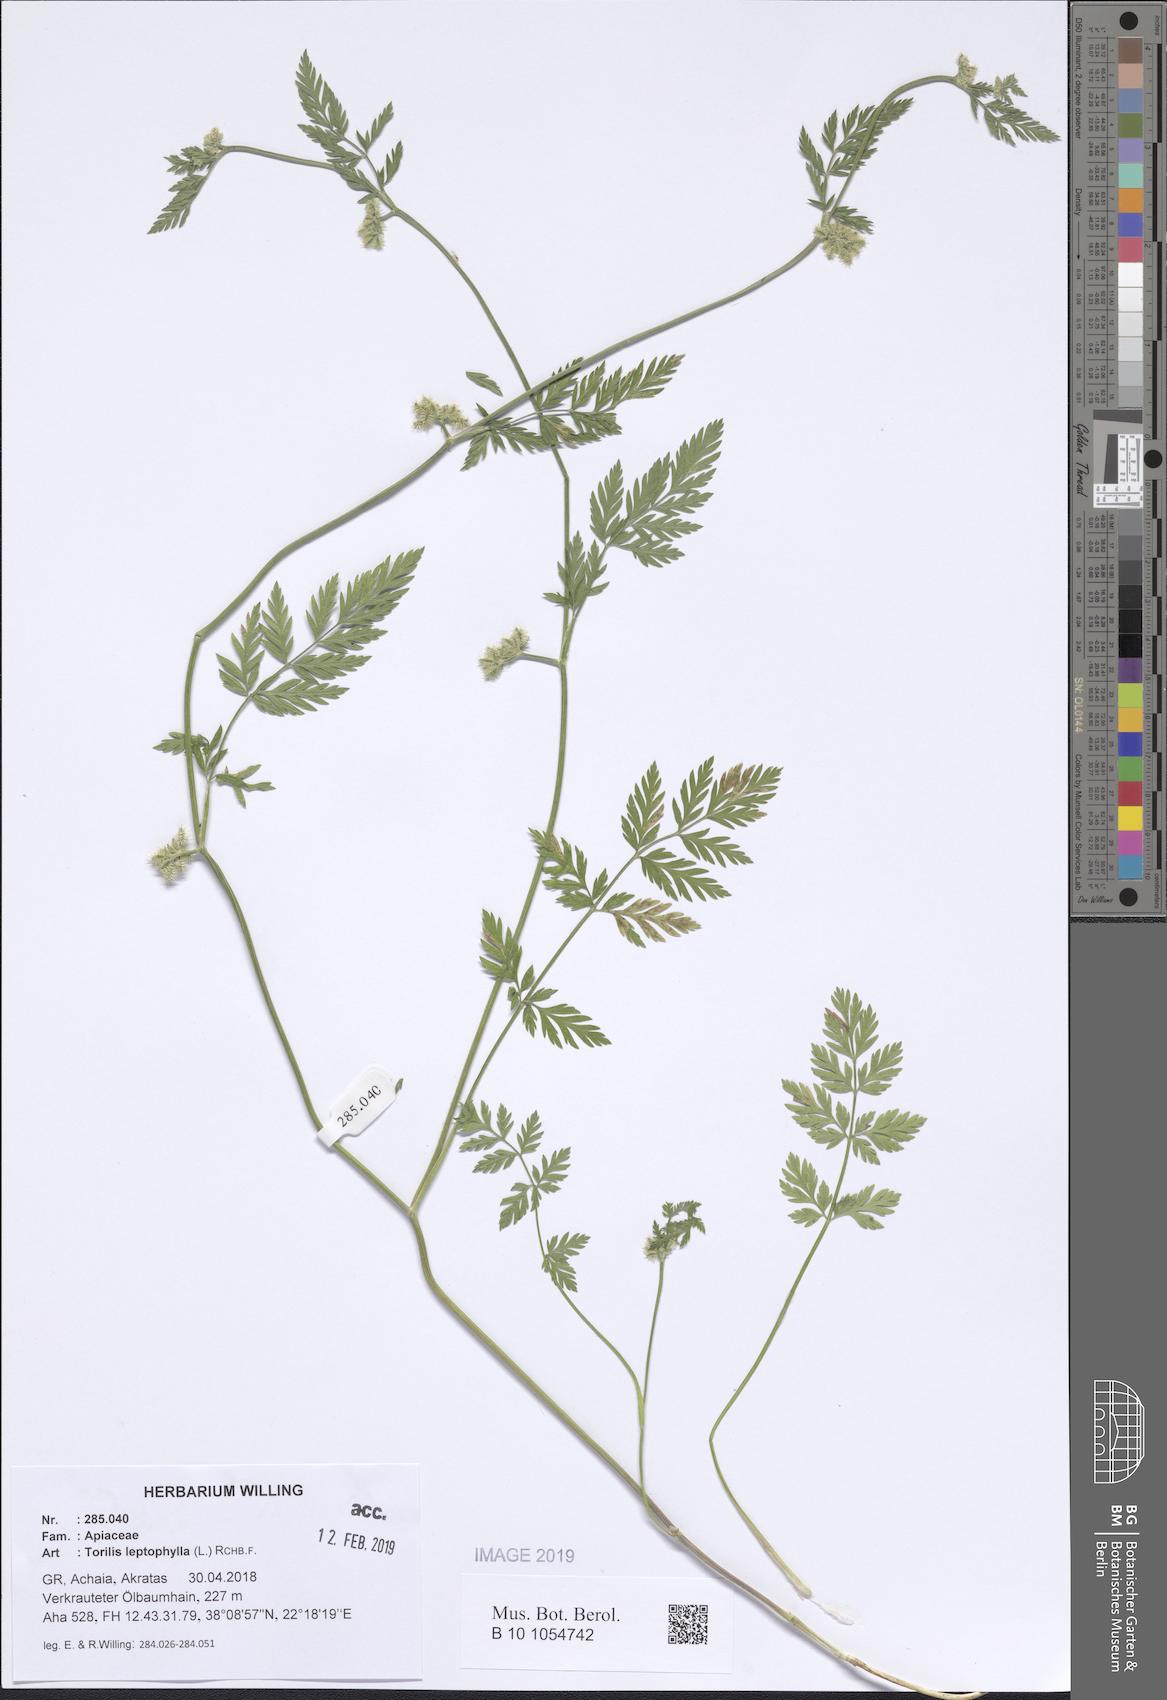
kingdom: Plantae
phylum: Tracheophyta
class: Magnoliopsida
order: Apiales
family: Apiaceae
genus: Torilis
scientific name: Torilis leptophylla
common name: Bristlefruit hedgeparsley
